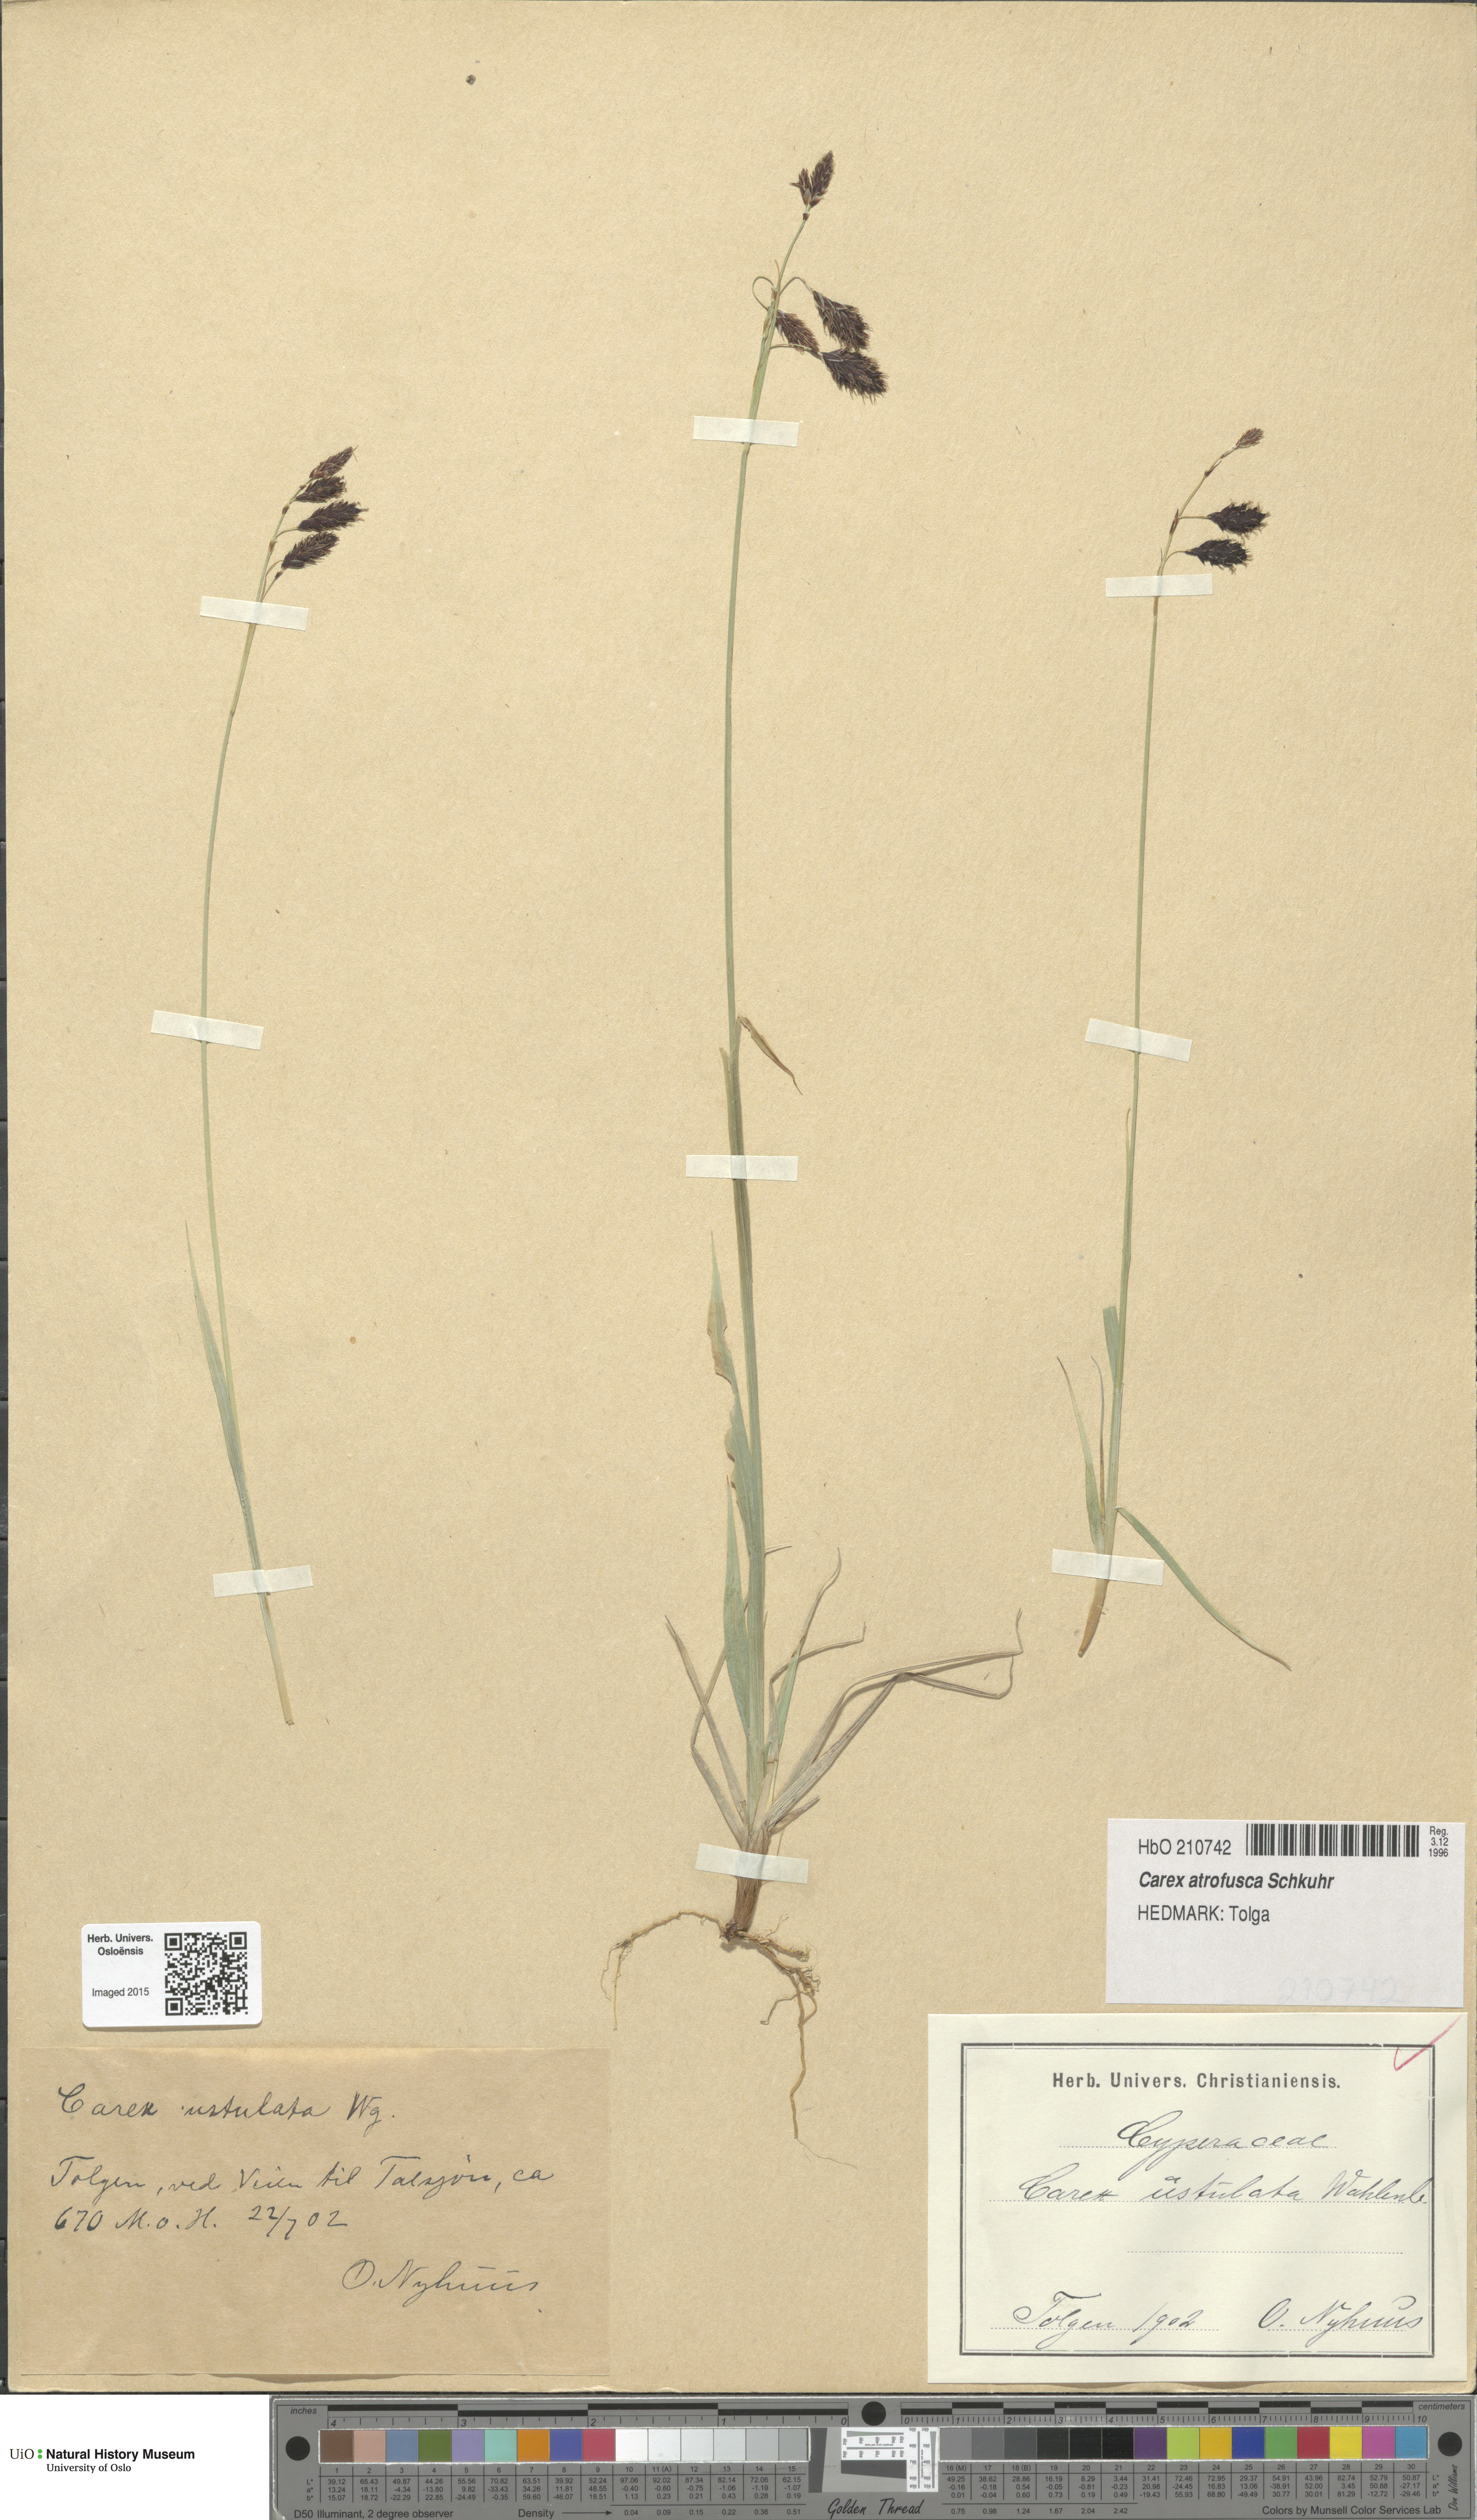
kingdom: Plantae
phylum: Tracheophyta
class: Liliopsida
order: Poales
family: Cyperaceae
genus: Carex
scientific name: Carex atrofusca
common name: Scorched alpine-sedge
